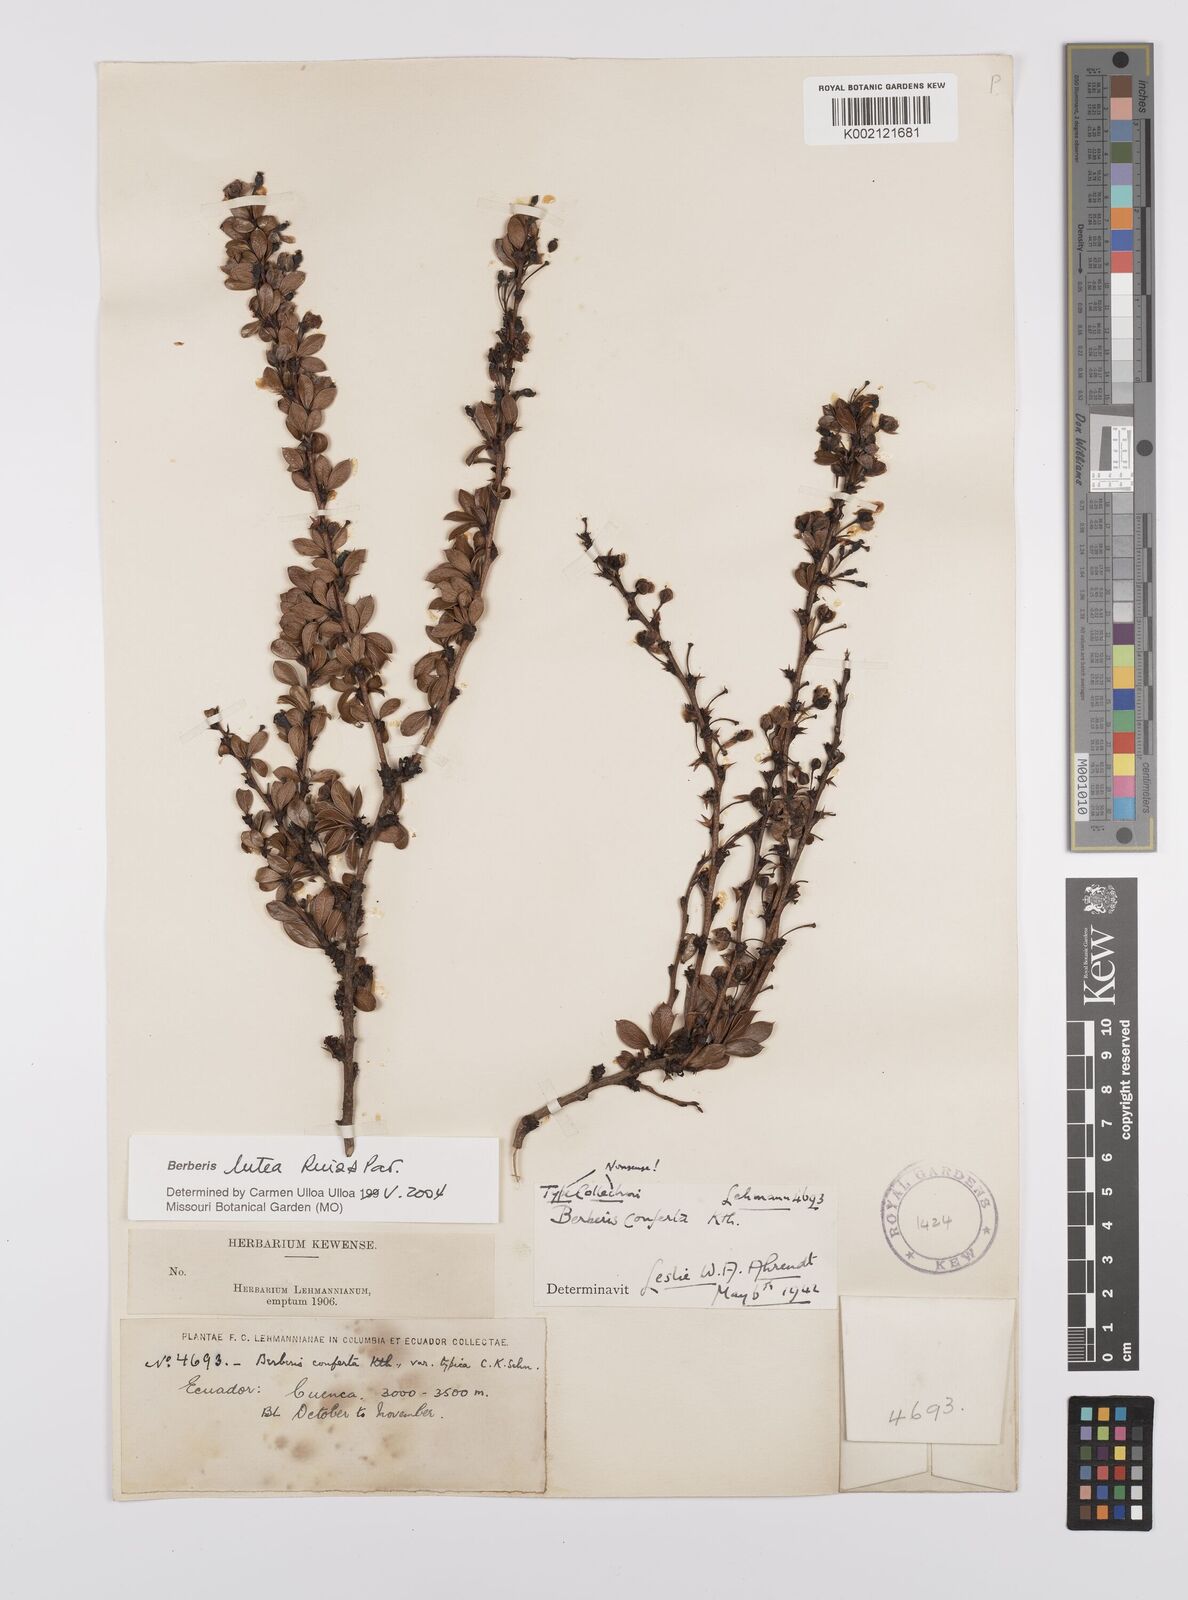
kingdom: Plantae
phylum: Tracheophyta
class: Magnoliopsida
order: Ranunculales
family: Berberidaceae
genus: Berberis
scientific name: Berberis lutea
